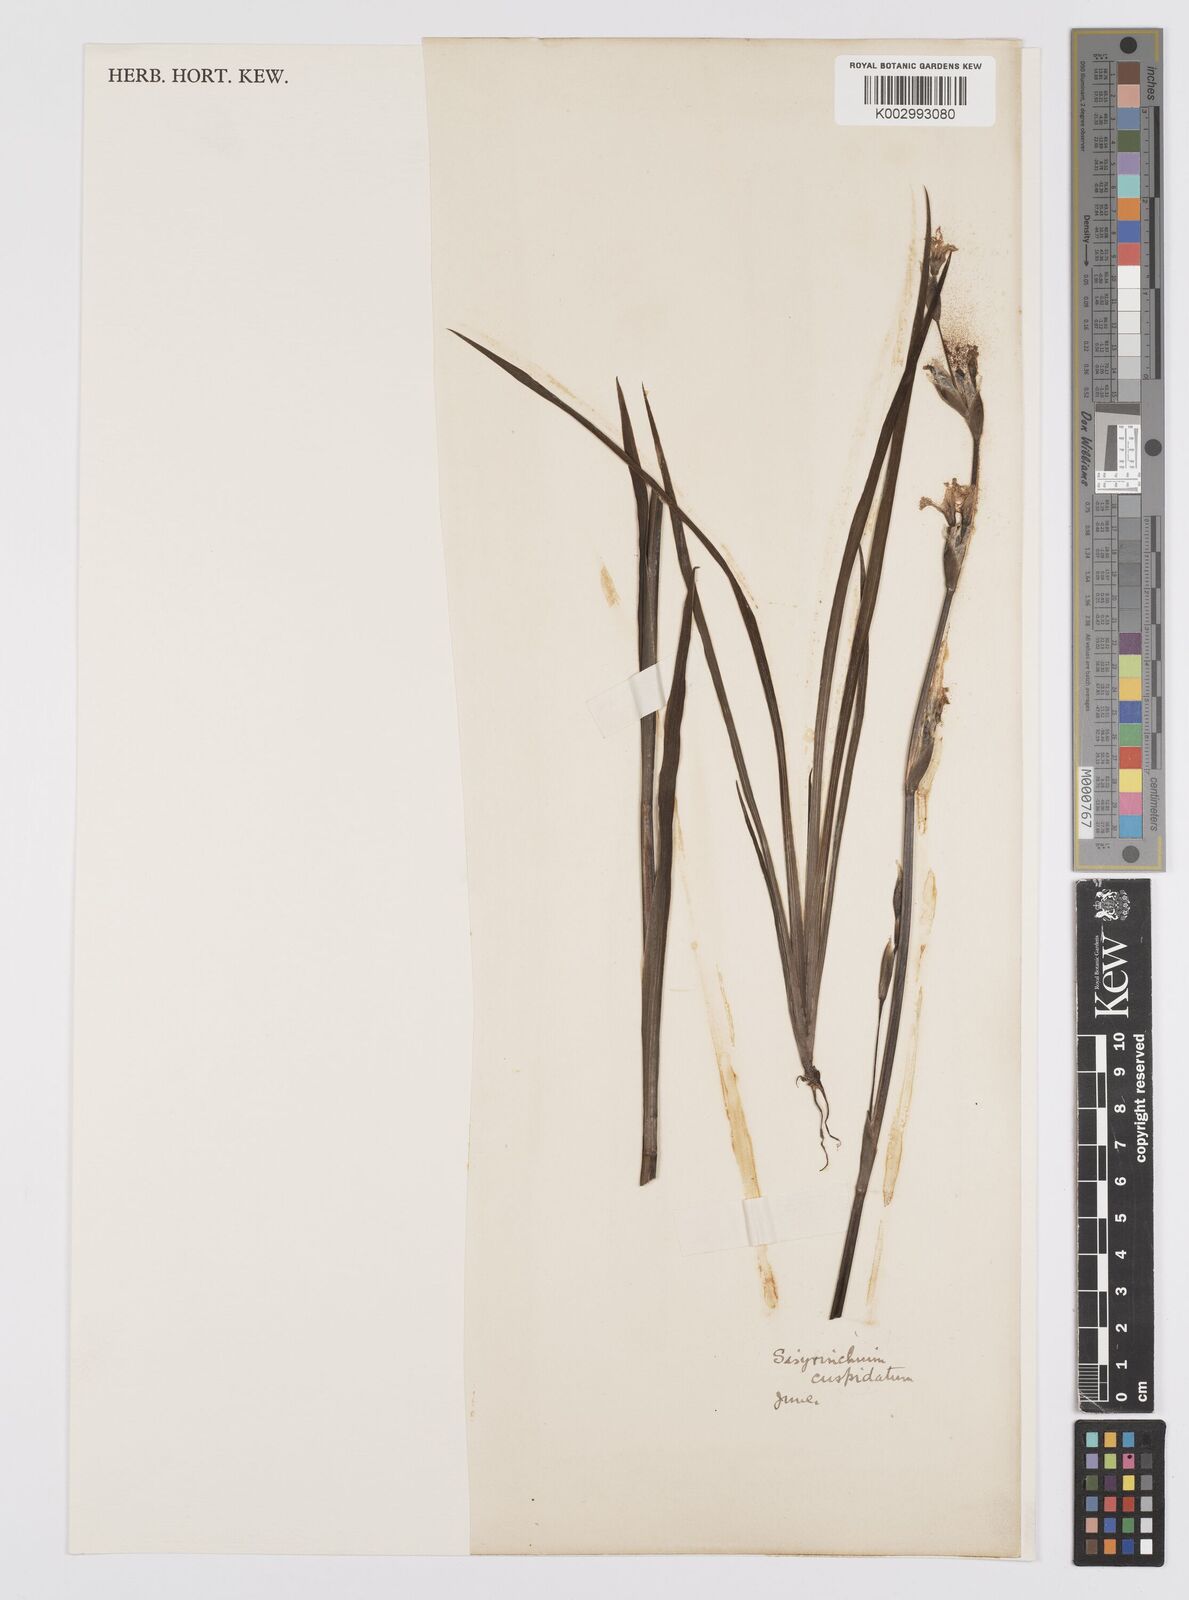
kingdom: Plantae
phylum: Tracheophyta
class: Liliopsida
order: Asparagales
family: Iridaceae
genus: Sisyrinchium
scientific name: Sisyrinchium cuspidatum
